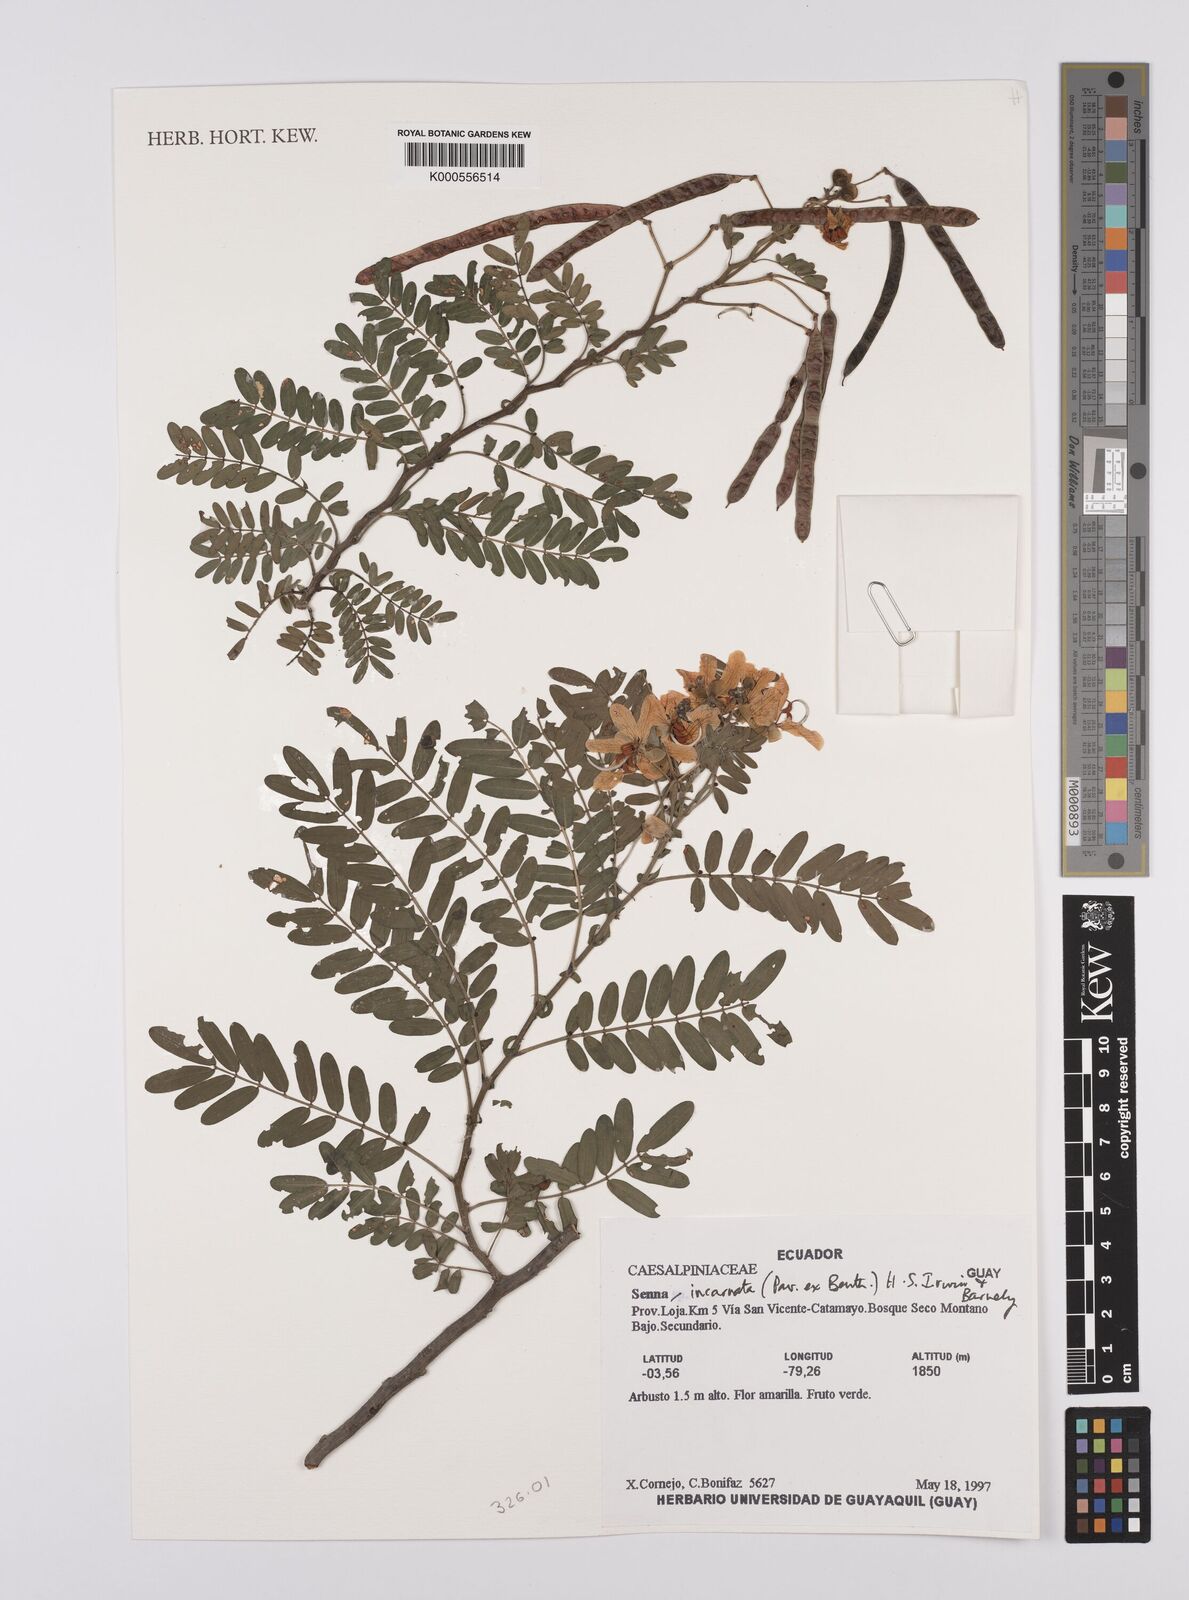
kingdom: Plantae
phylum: Tracheophyta
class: Magnoliopsida
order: Fabales
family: Fabaceae
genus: Senna
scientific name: Senna incarnata
